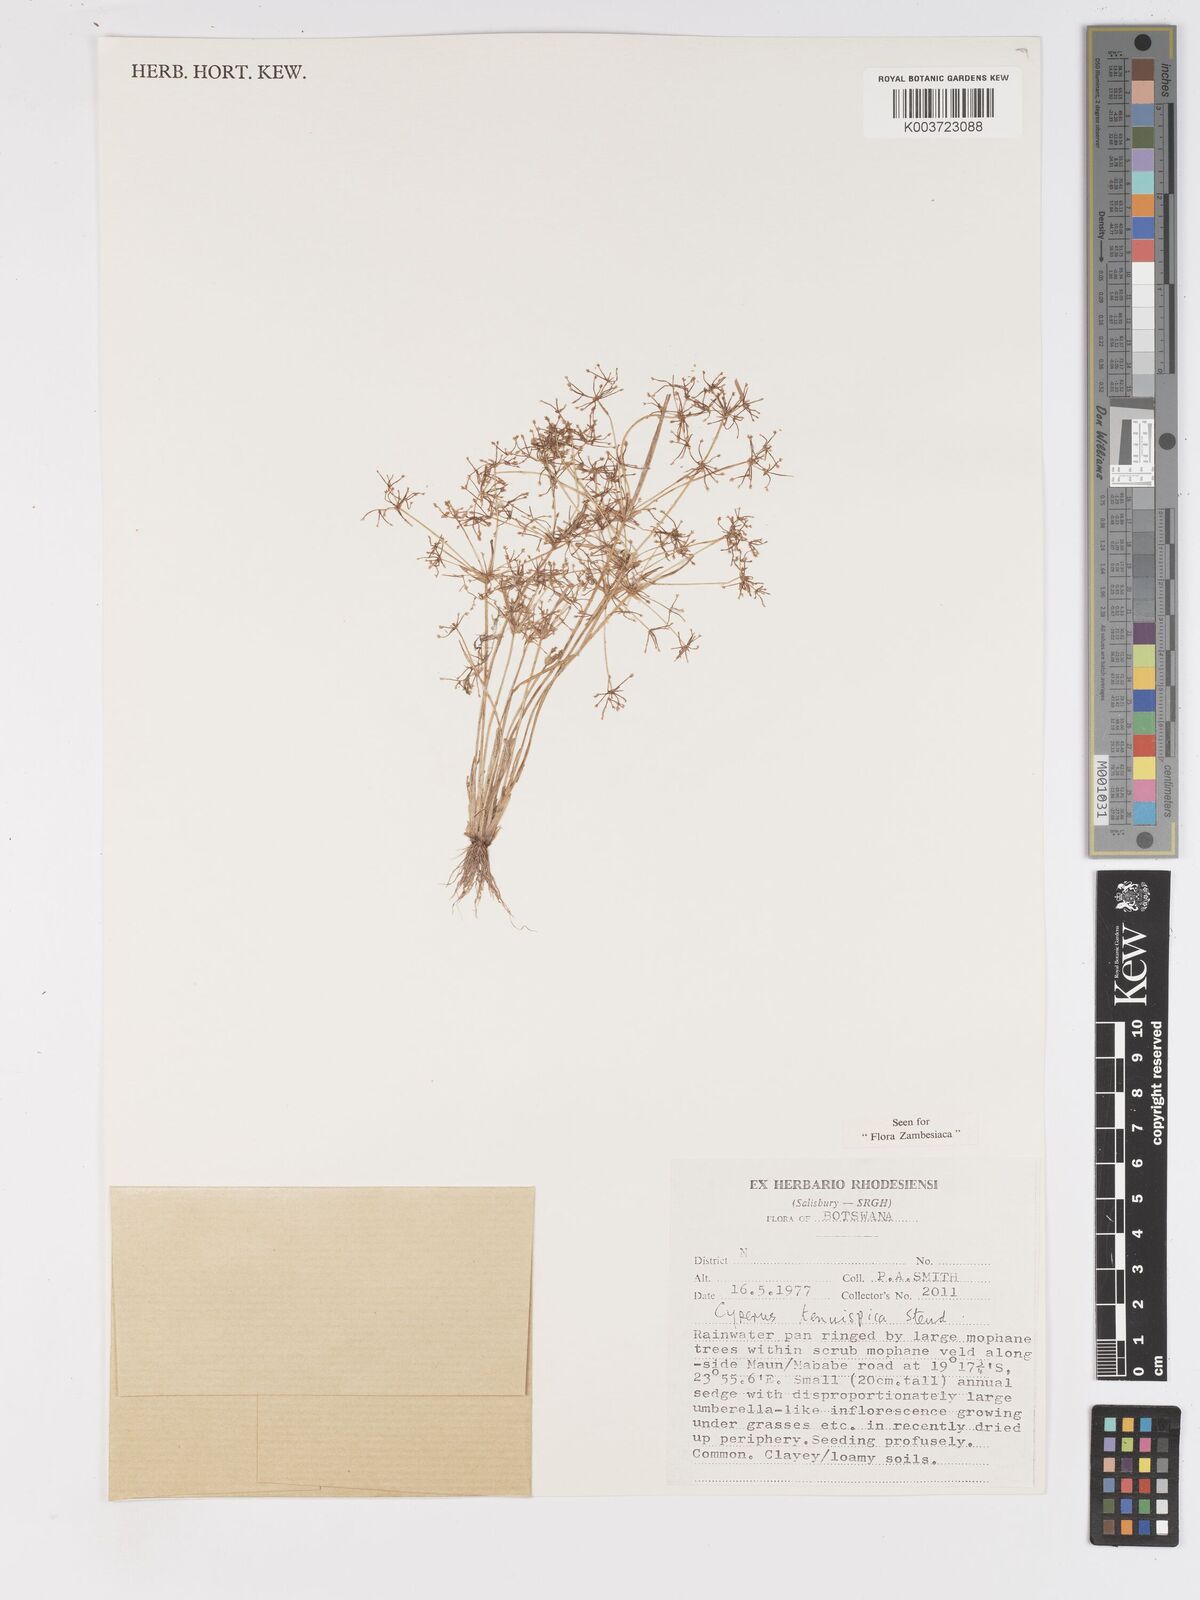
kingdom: Plantae
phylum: Tracheophyta
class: Liliopsida
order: Poales
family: Cyperaceae
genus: Cyperus
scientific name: Cyperus tenuispica
